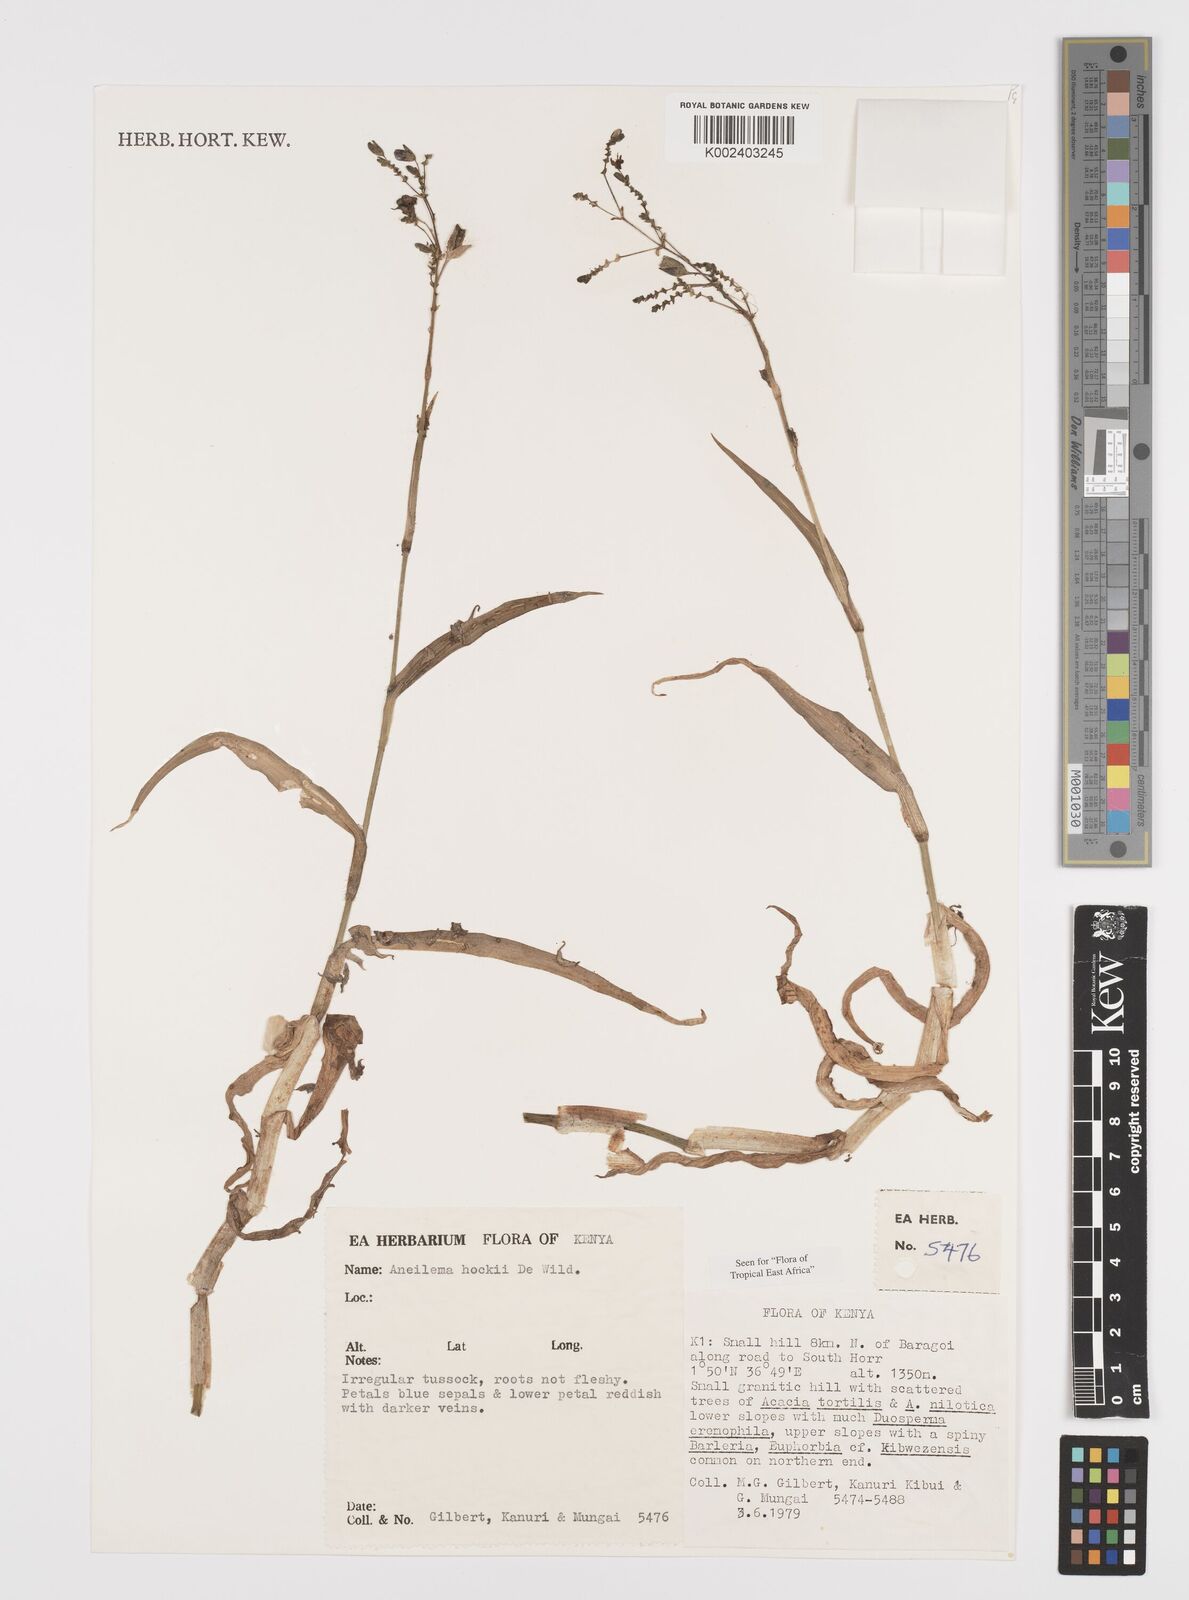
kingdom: Plantae
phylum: Tracheophyta
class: Liliopsida
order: Commelinales
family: Commelinaceae
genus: Aneilema
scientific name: Aneilema hockii
